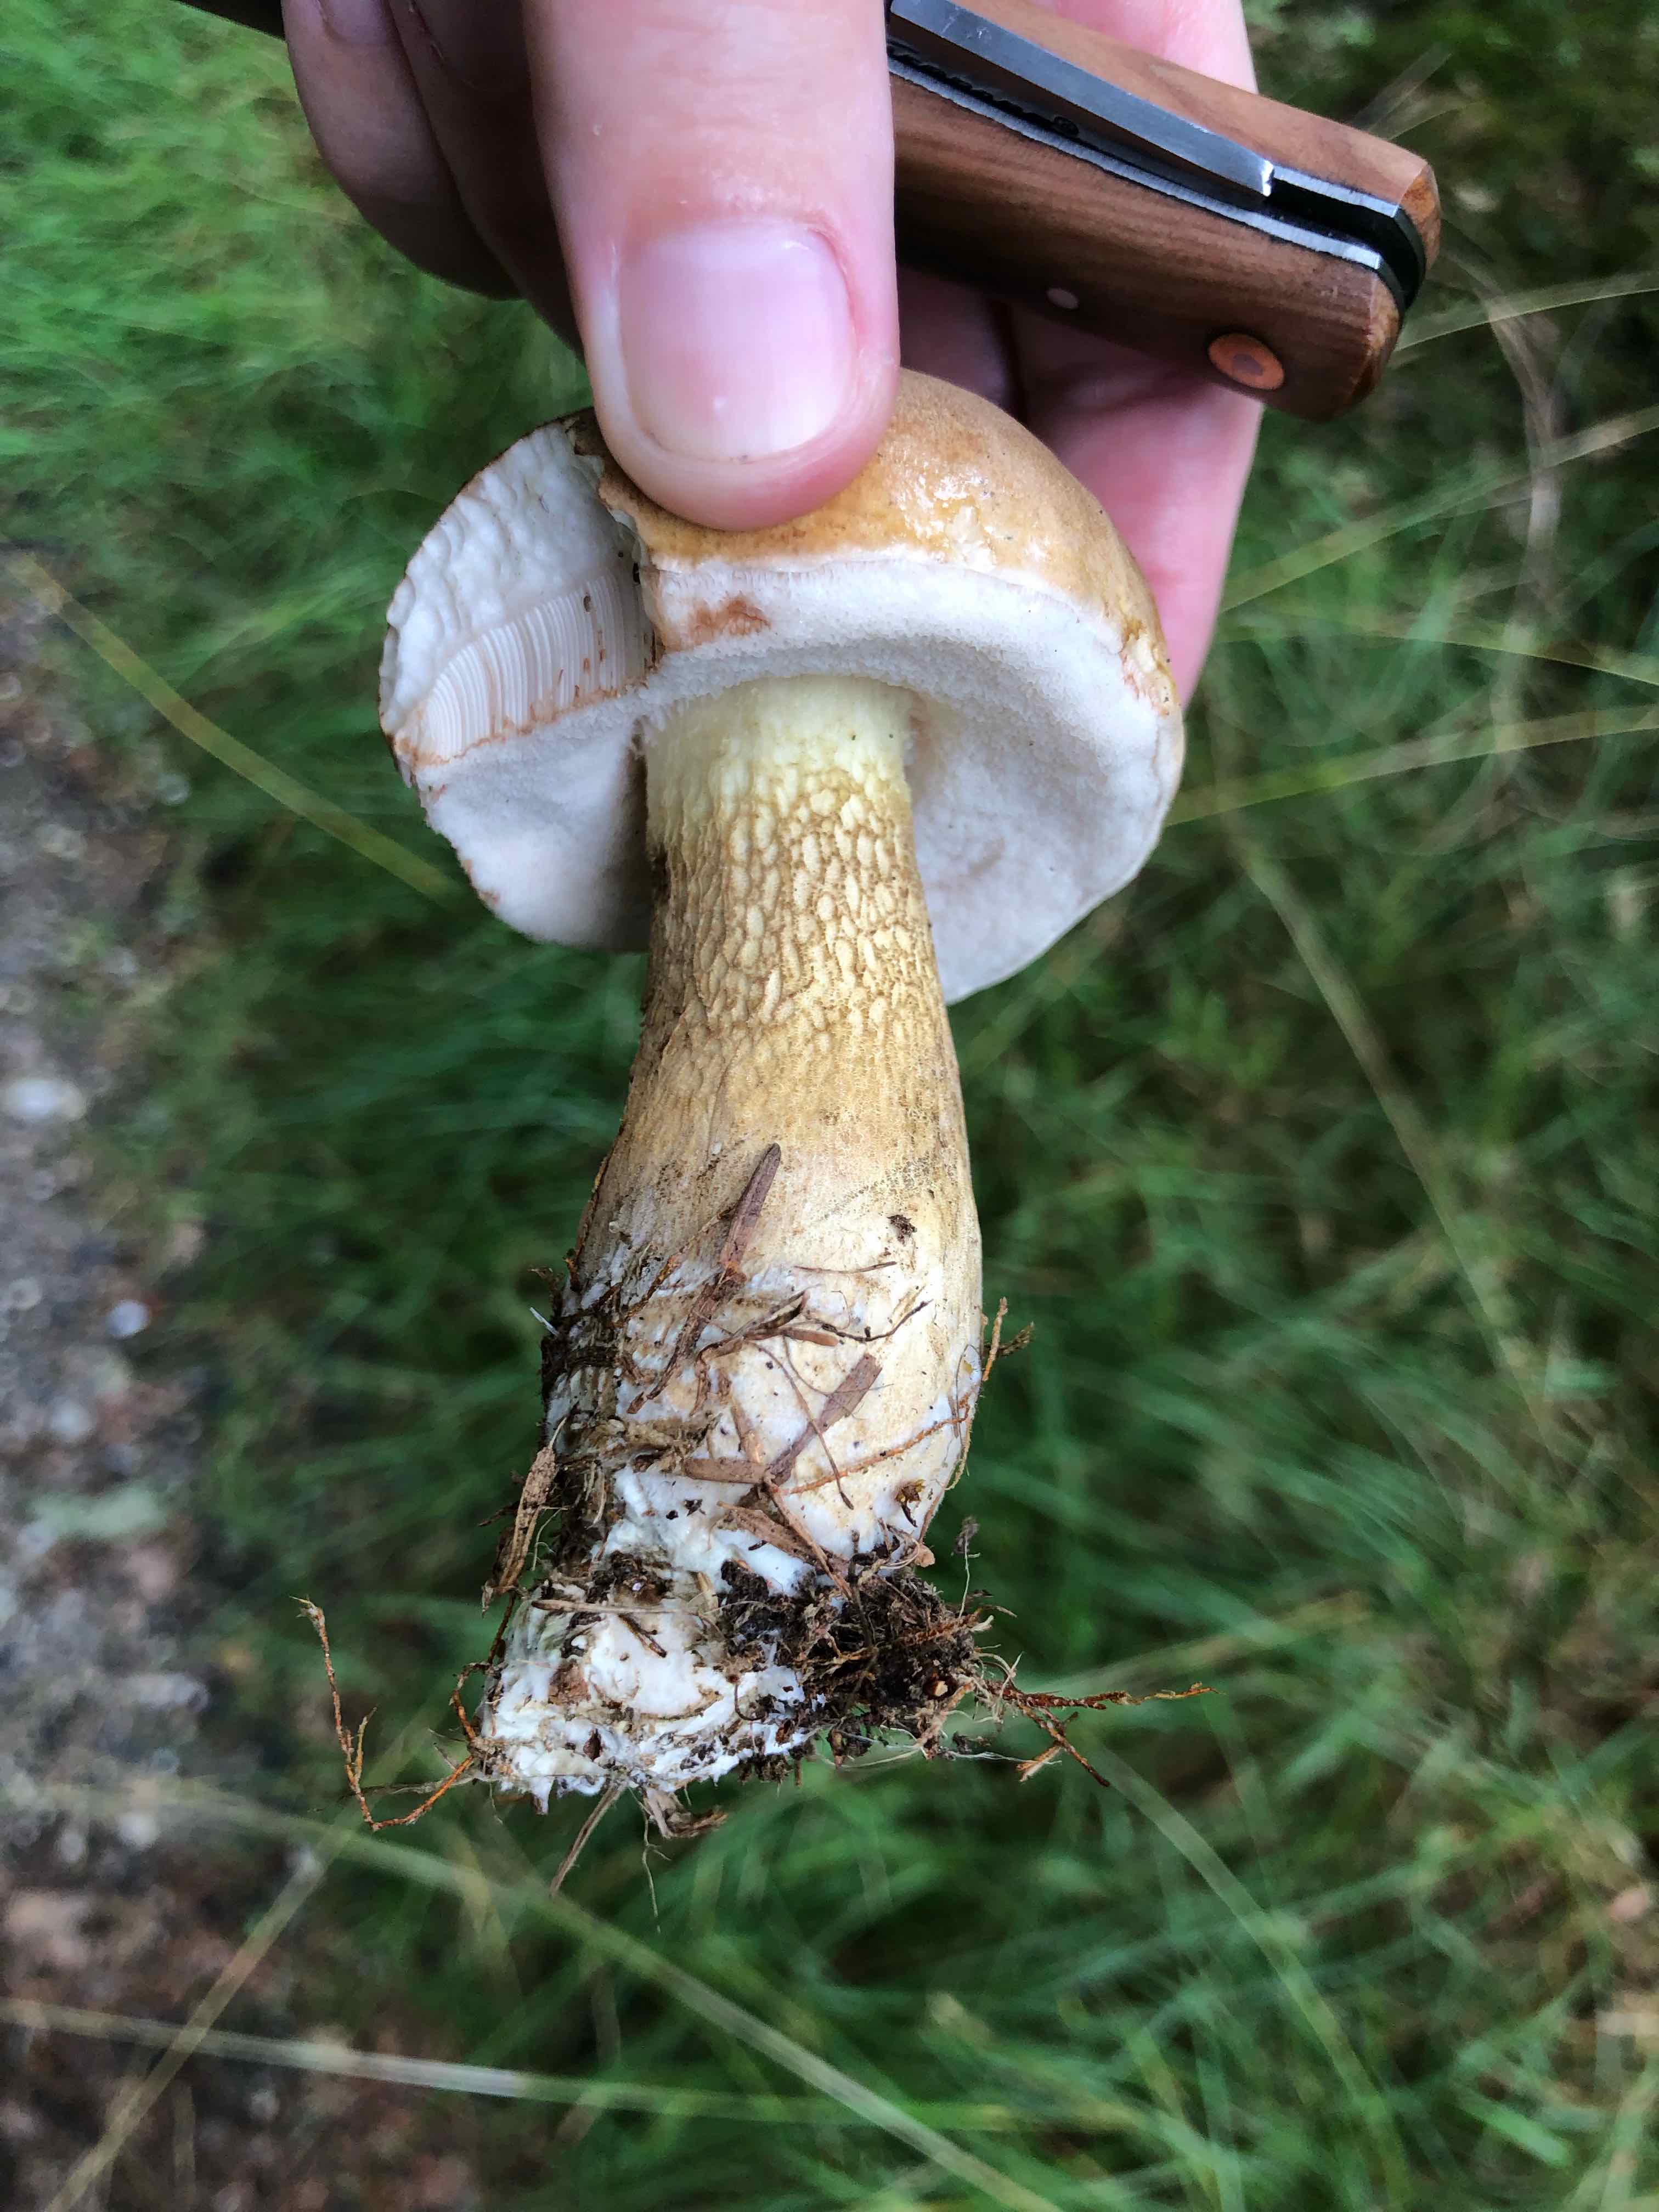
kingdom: Fungi
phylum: Basidiomycota
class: Agaricomycetes
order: Boletales
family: Boletaceae
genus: Tylopilus
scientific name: Tylopilus felleus
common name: galderørhat
